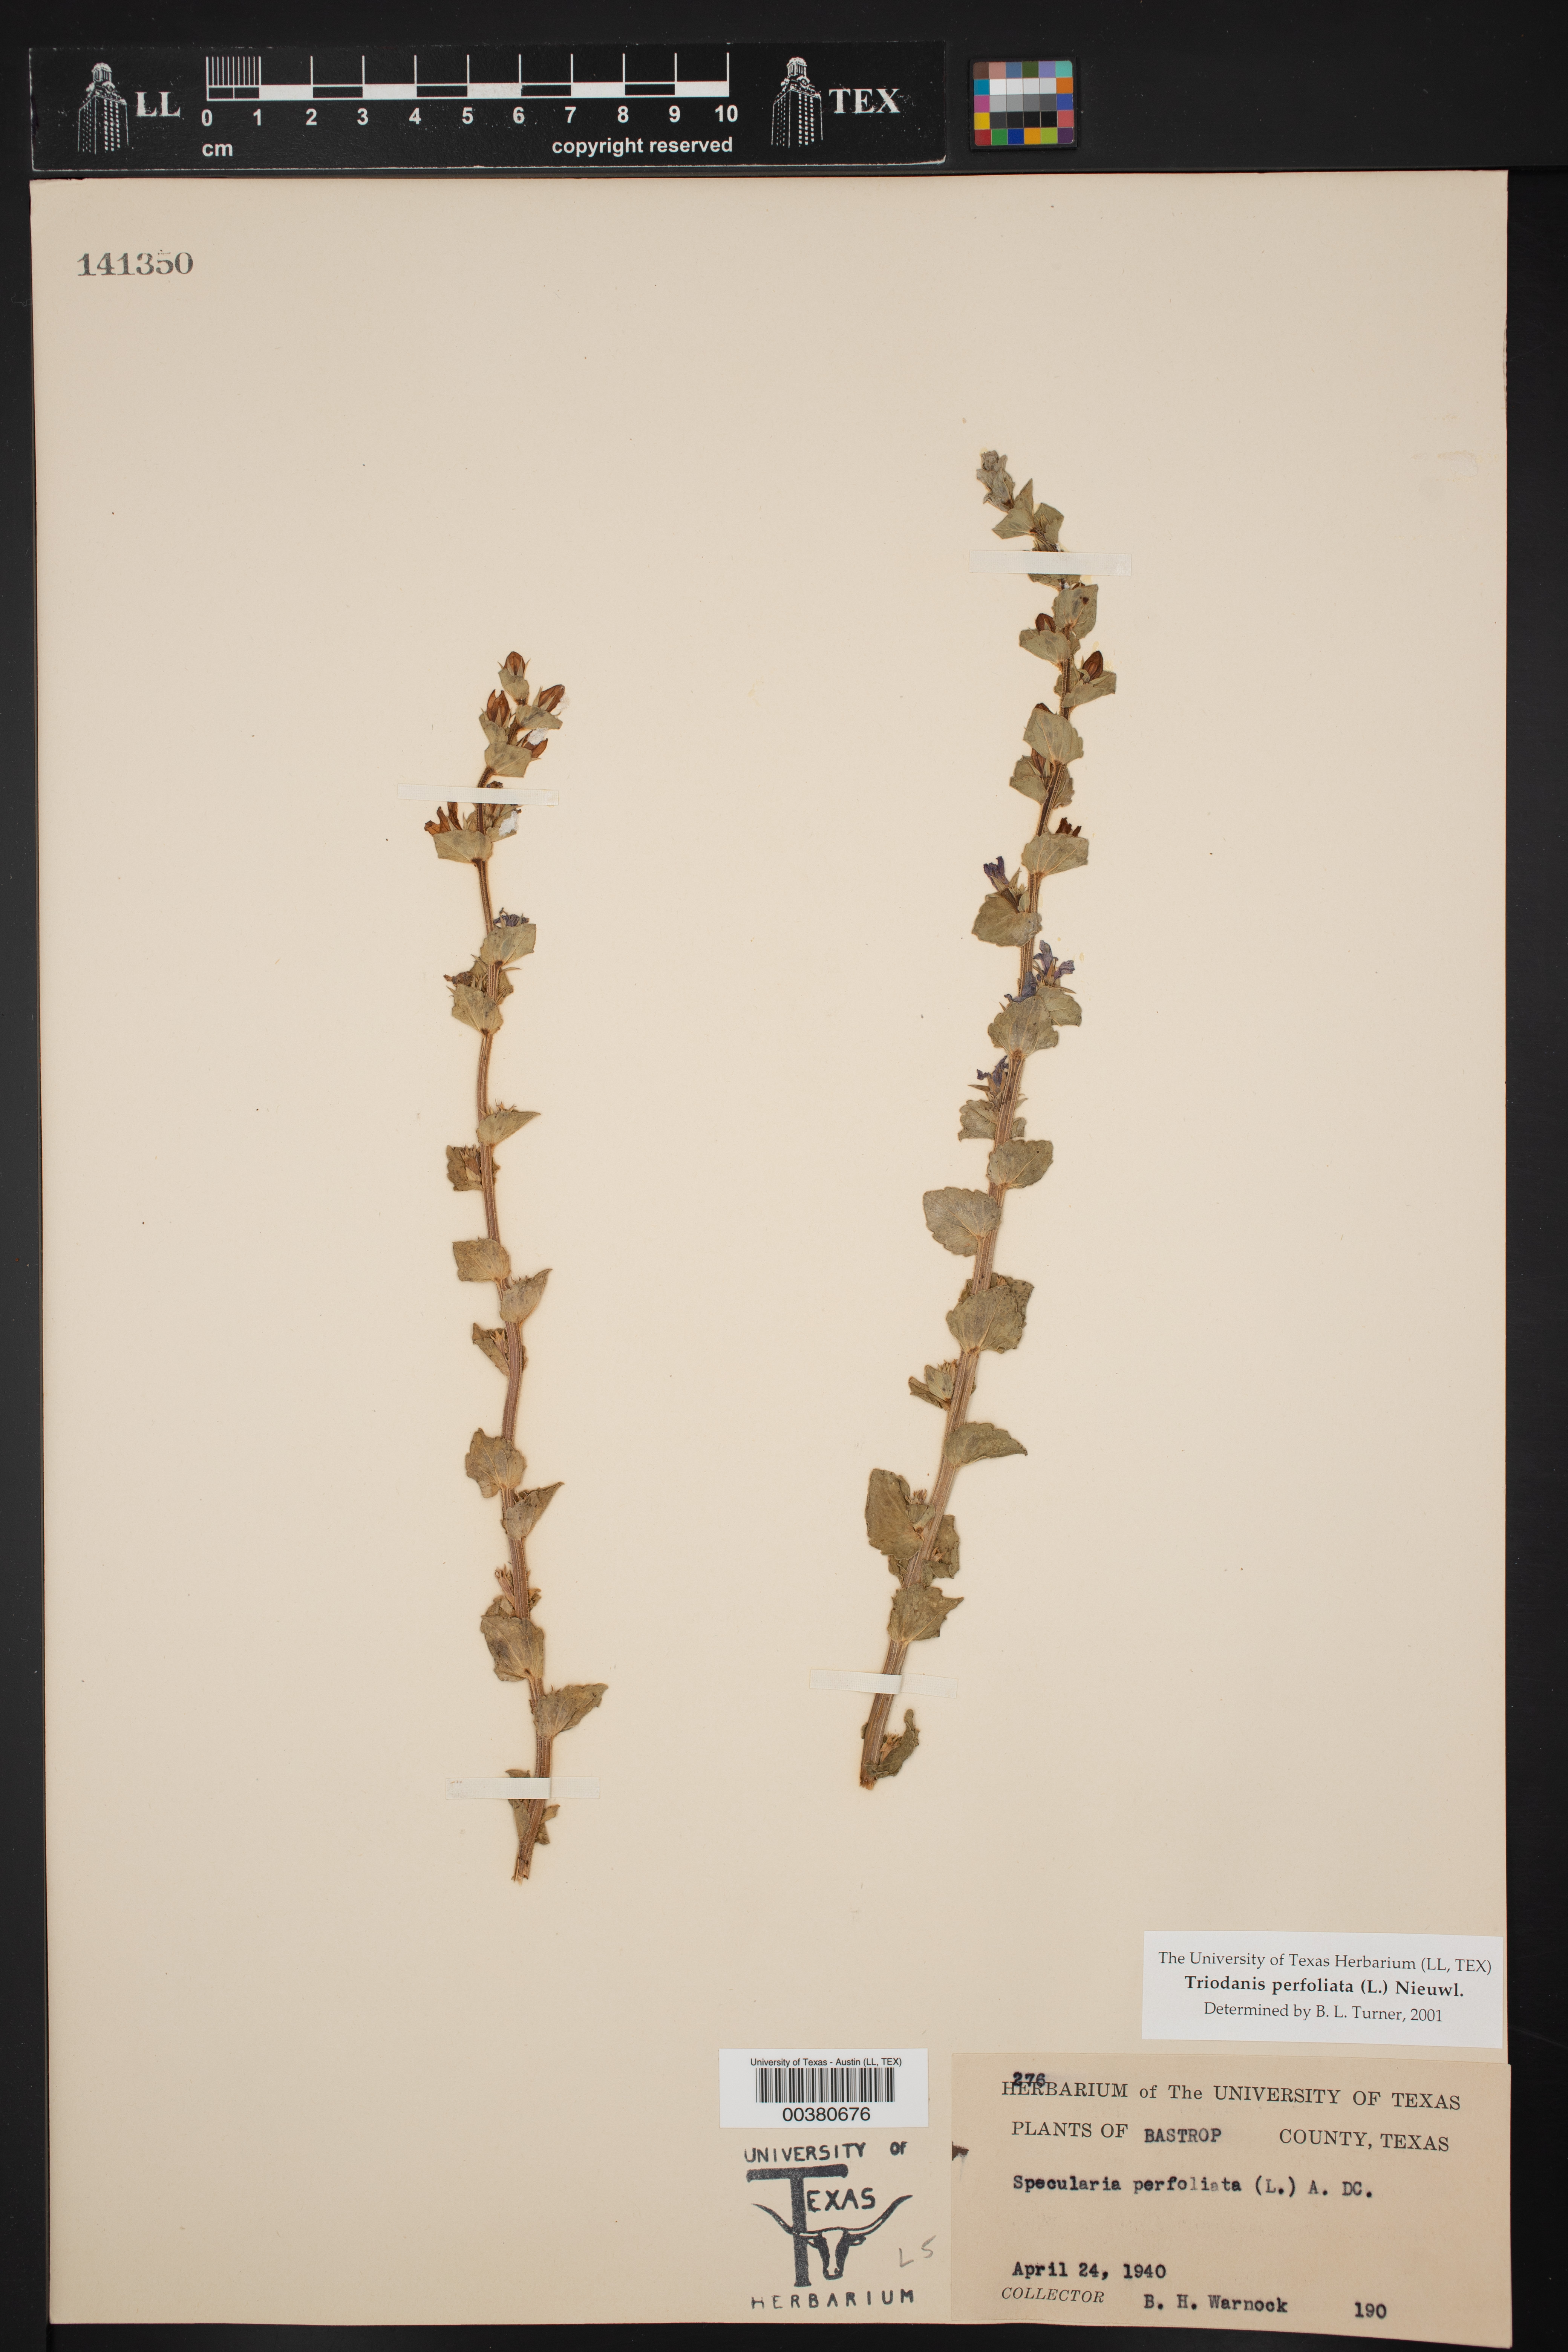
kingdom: Plantae
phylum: Tracheophyta
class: Magnoliopsida
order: Asterales
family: Campanulaceae
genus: Triodanis
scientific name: Triodanis perfoliata
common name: Clasping venus' looking-glass
